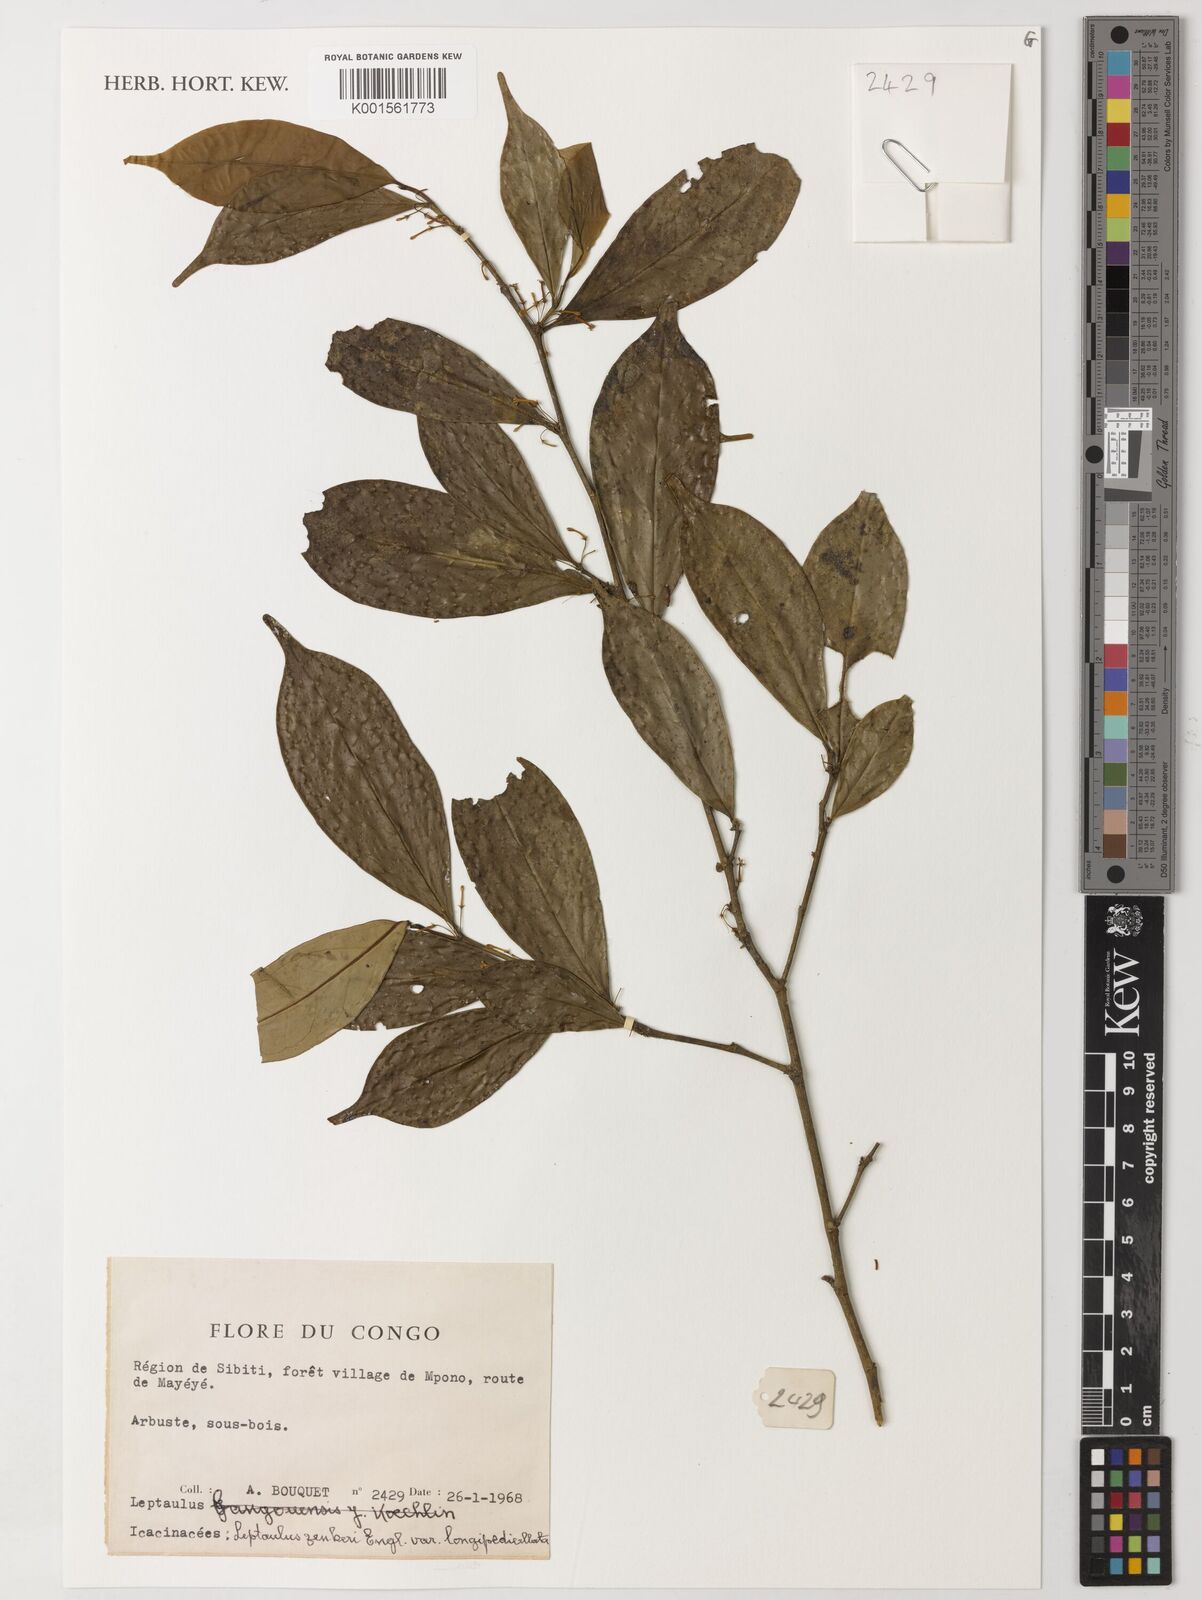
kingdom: Plantae
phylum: Tracheophyta
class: Magnoliopsida
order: Cardiopteridales
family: Cardiopteridaceae
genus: Leptaulus
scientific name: Leptaulus congolanus
